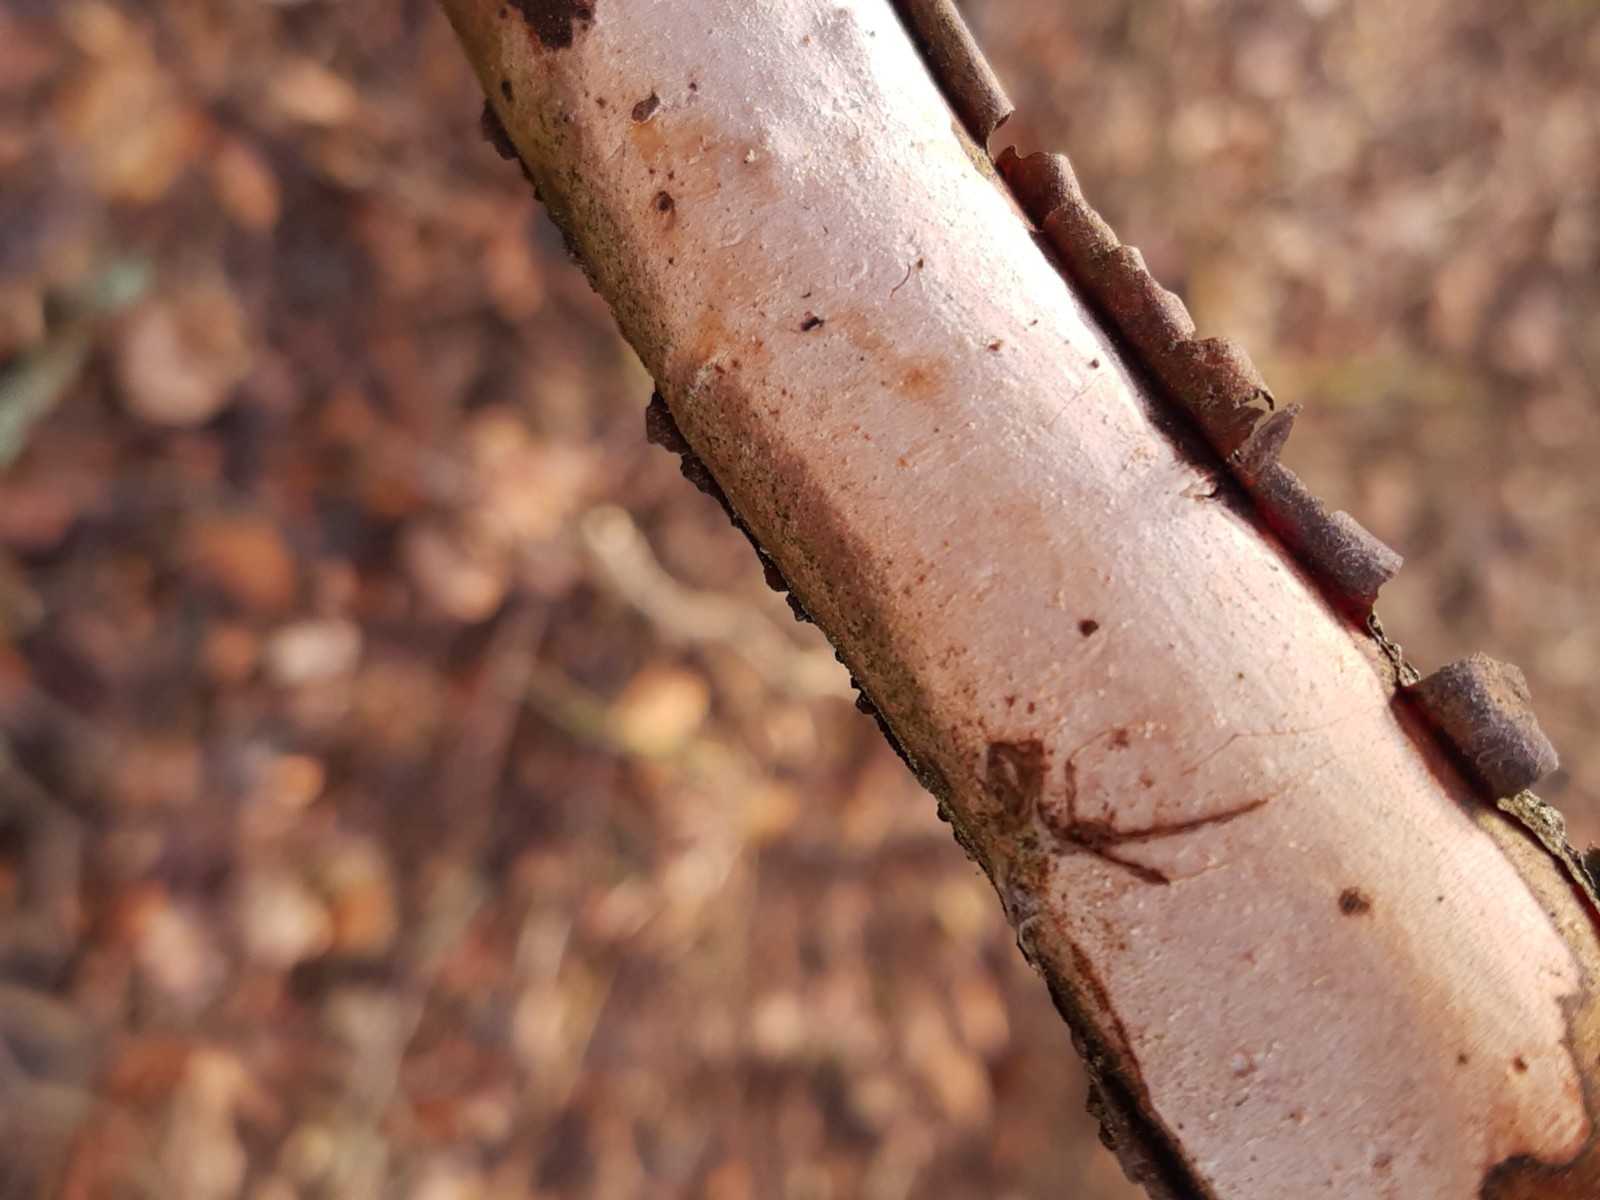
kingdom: Fungi
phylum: Basidiomycota
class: Agaricomycetes
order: Corticiales
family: Vuilleminiaceae
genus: Vuilleminia
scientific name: Vuilleminia cystidiata
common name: tjørne-barksprænger
